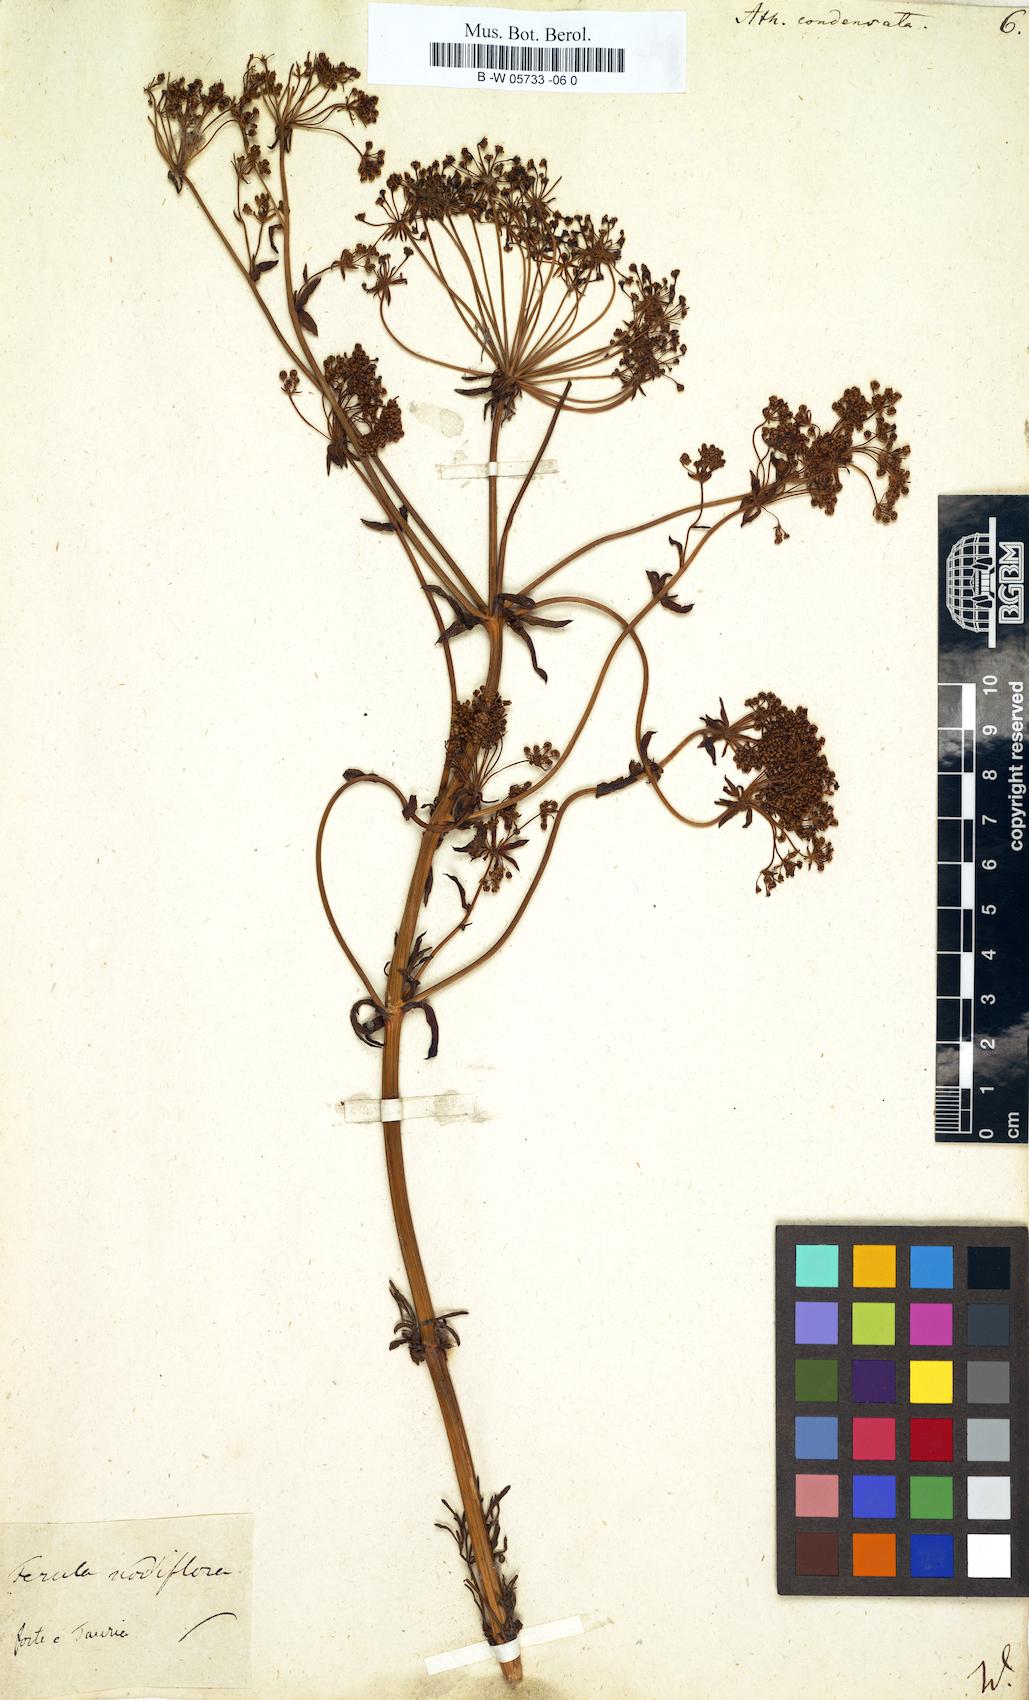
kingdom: Plantae
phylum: Tracheophyta
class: Magnoliopsida
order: Apiales
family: Apiaceae
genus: Seseli
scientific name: Seseli condensatum
